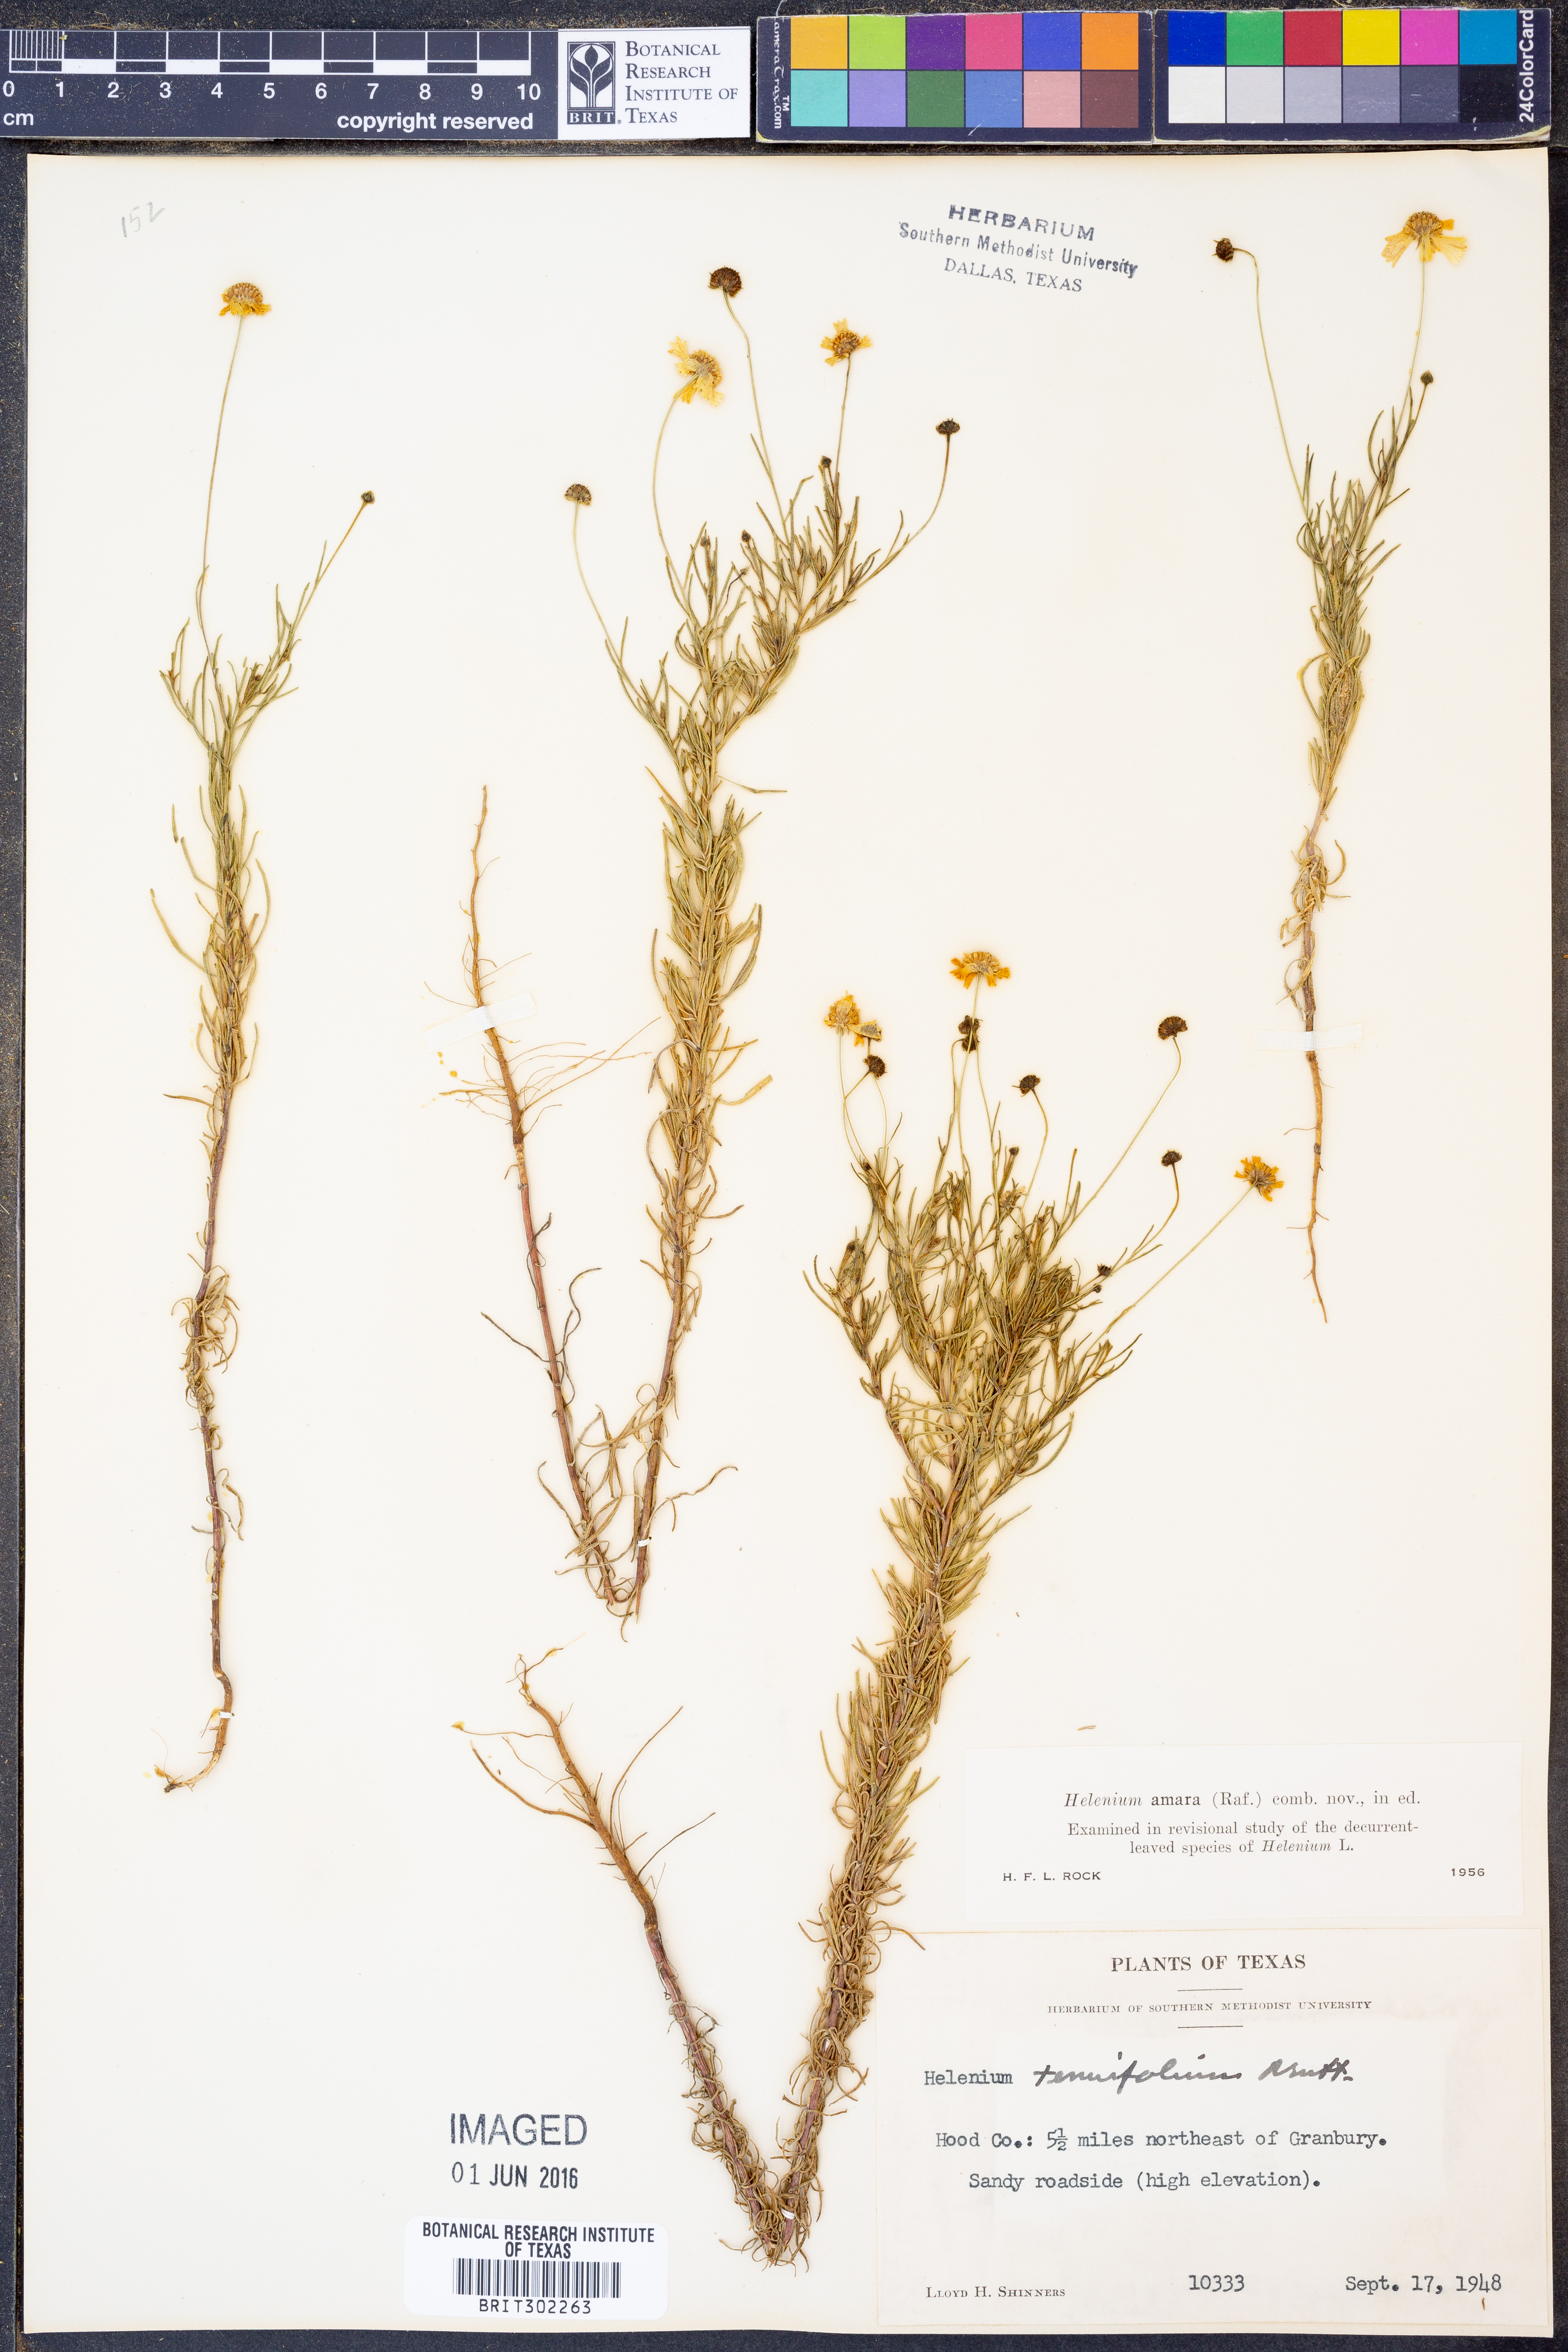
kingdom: Plantae
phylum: Tracheophyta
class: Magnoliopsida
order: Asterales
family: Asteraceae
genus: Helenium
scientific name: Helenium amarum
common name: Bitter sneezeweed
